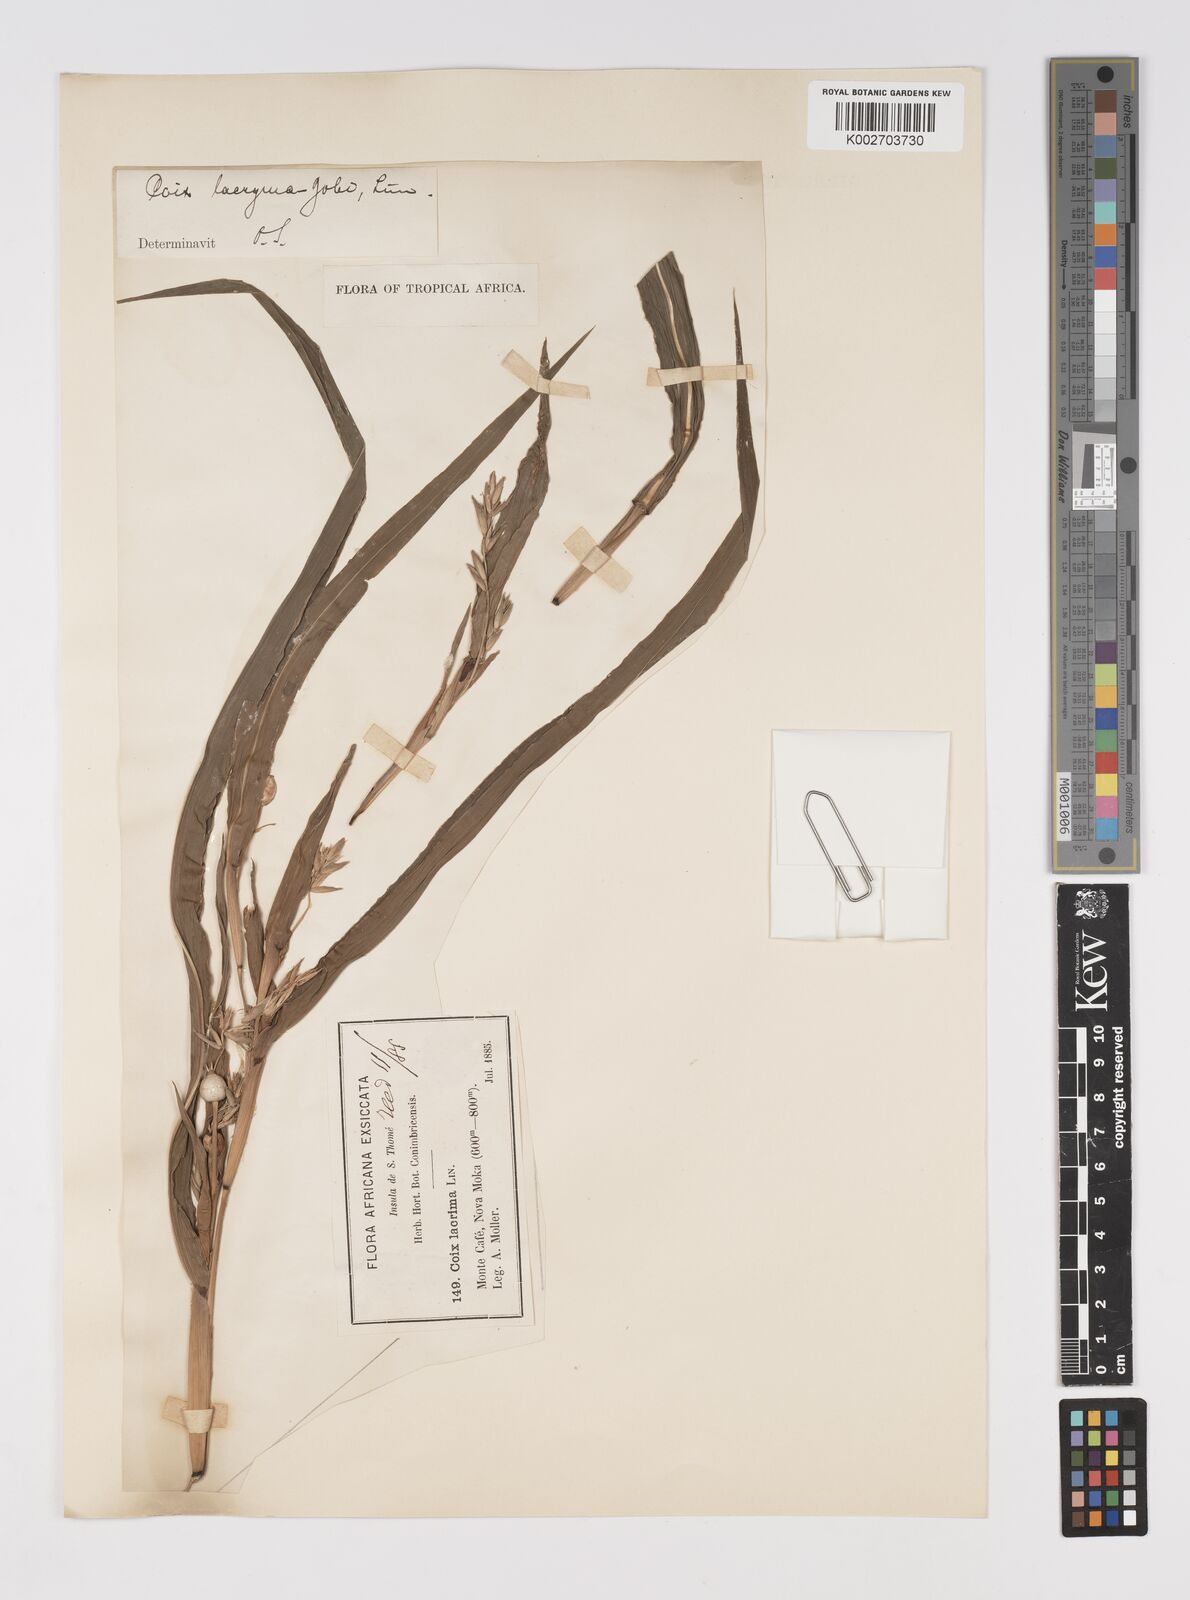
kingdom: Plantae
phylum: Tracheophyta
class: Liliopsida
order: Poales
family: Poaceae
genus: Coix
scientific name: Coix lacryma-jobi
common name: Job's tears
